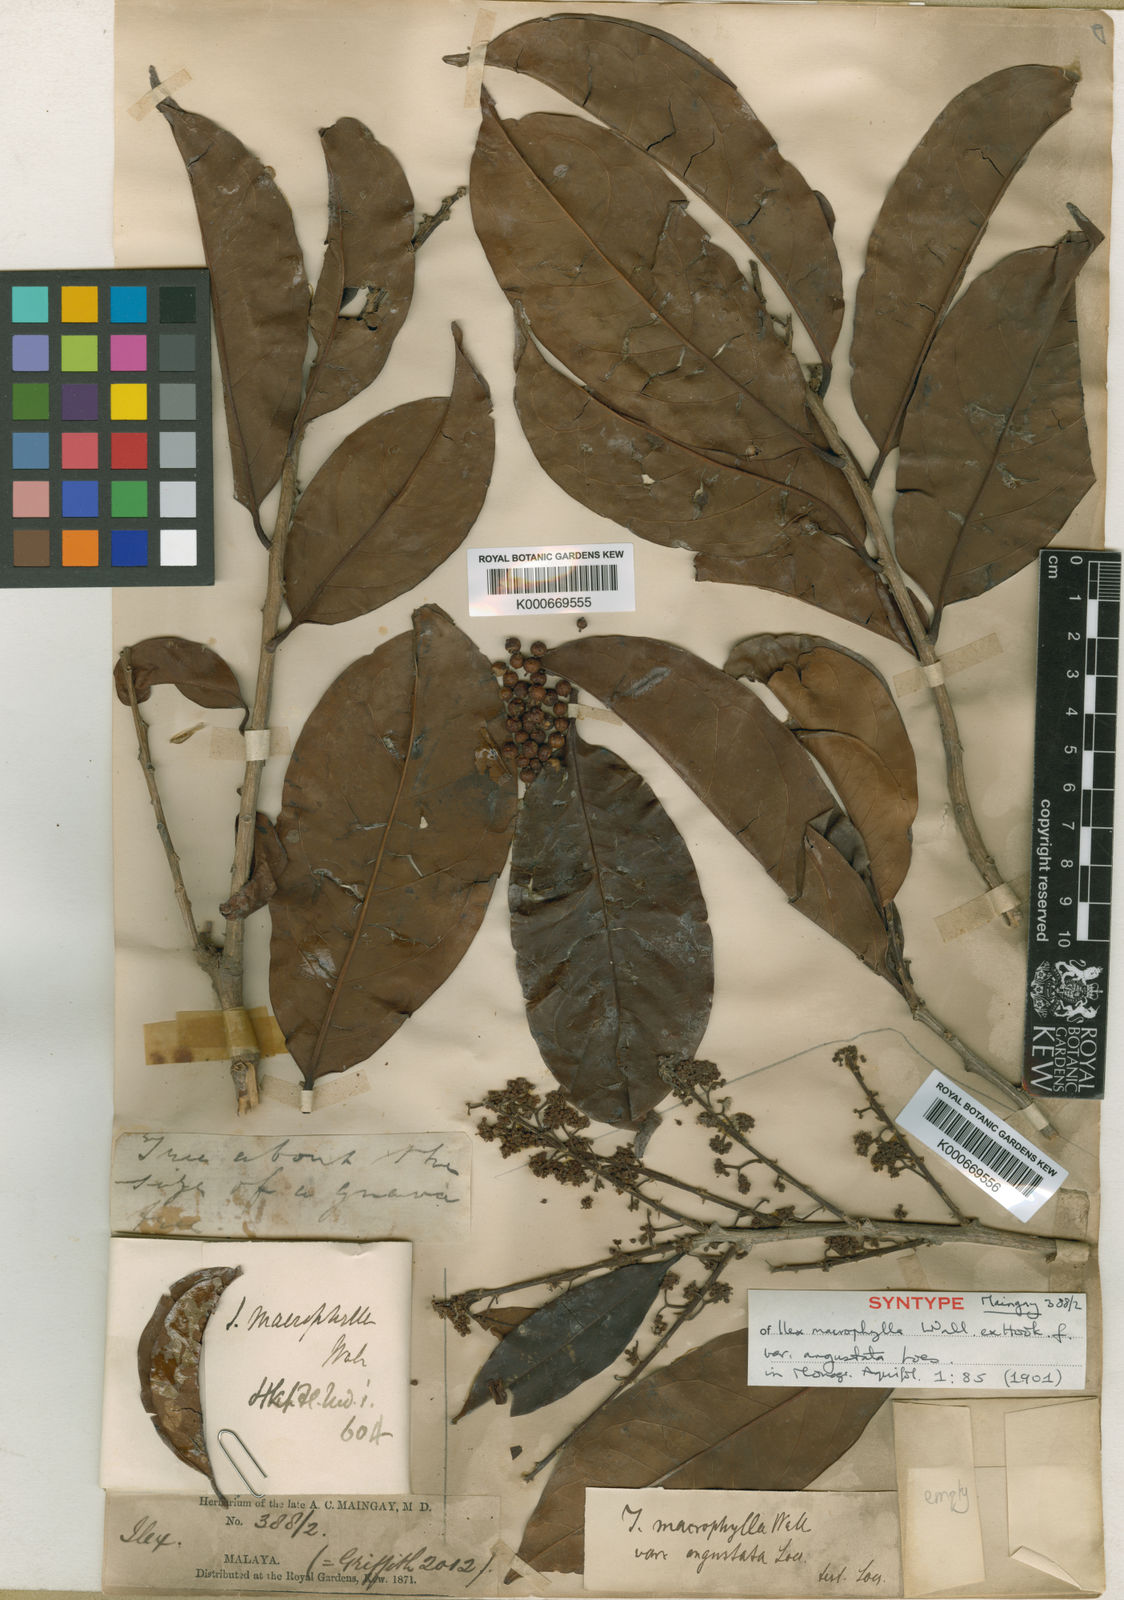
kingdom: Plantae
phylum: Tracheophyta
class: Magnoliopsida
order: Aquifoliales
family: Aquifoliaceae
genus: Ilex
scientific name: Ilex
